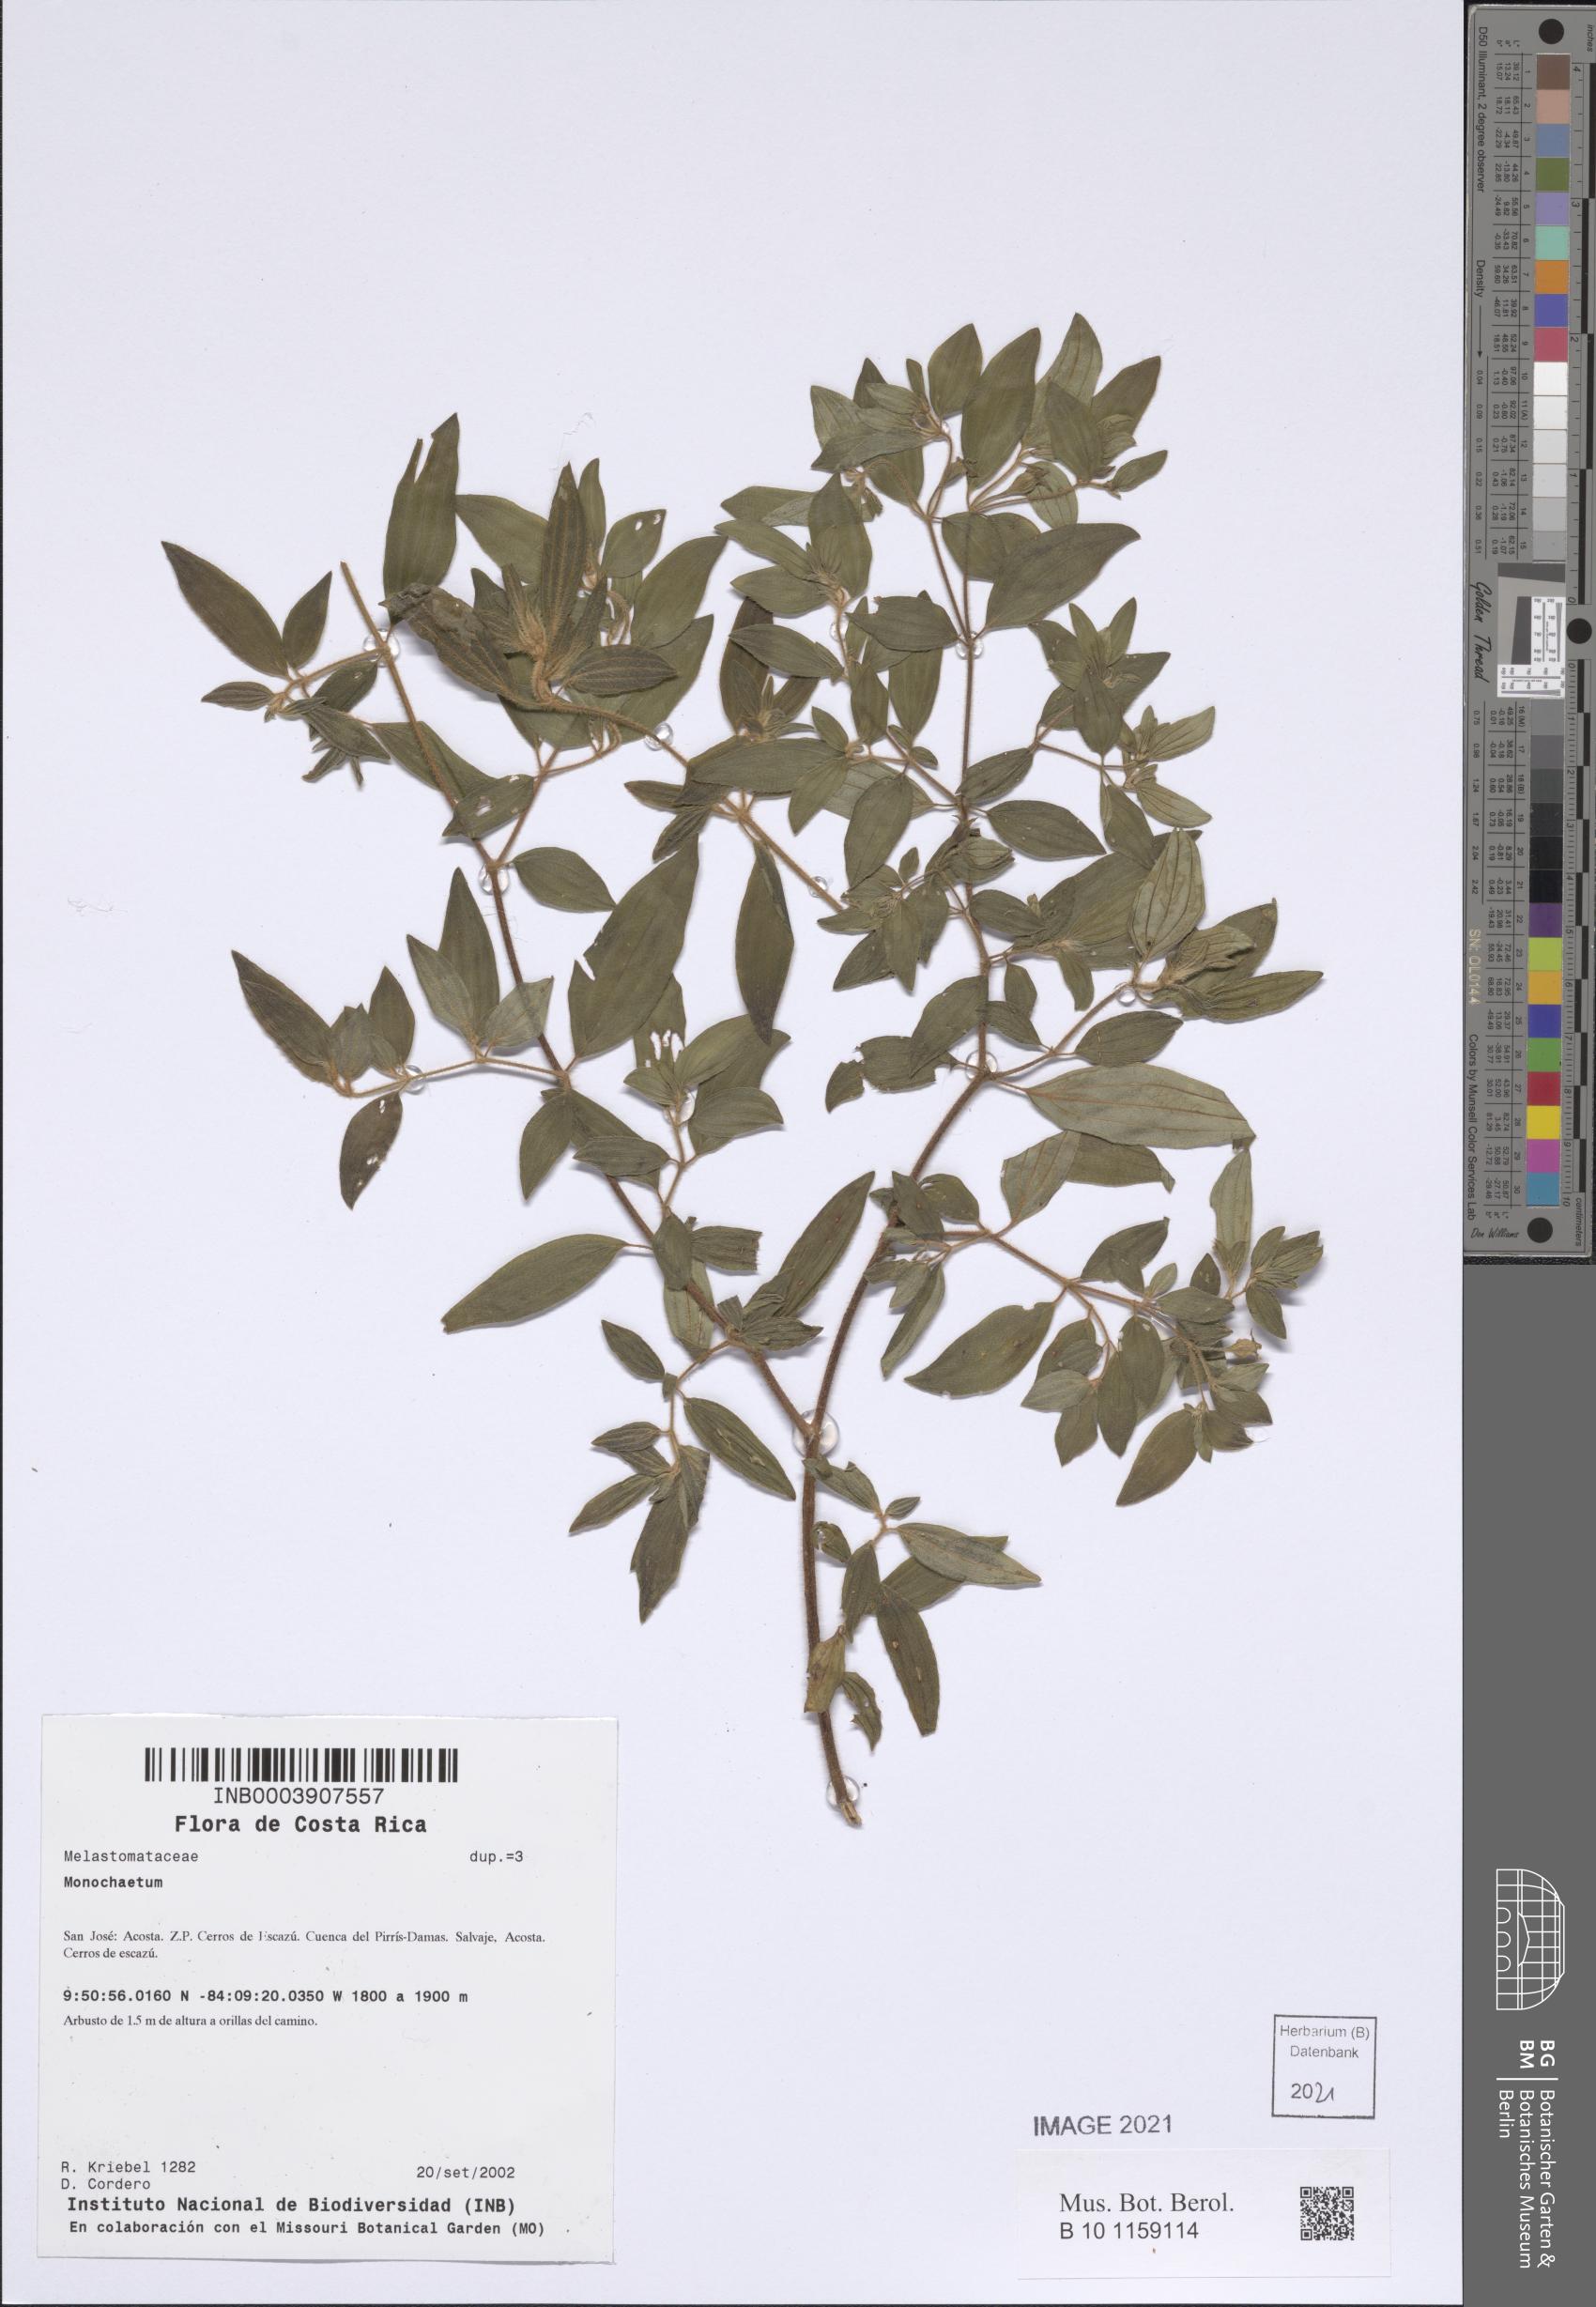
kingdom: Plantae
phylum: Tracheophyta
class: Magnoliopsida
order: Myrtales
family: Melastomataceae
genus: Monochaetum
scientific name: Monochaetum
